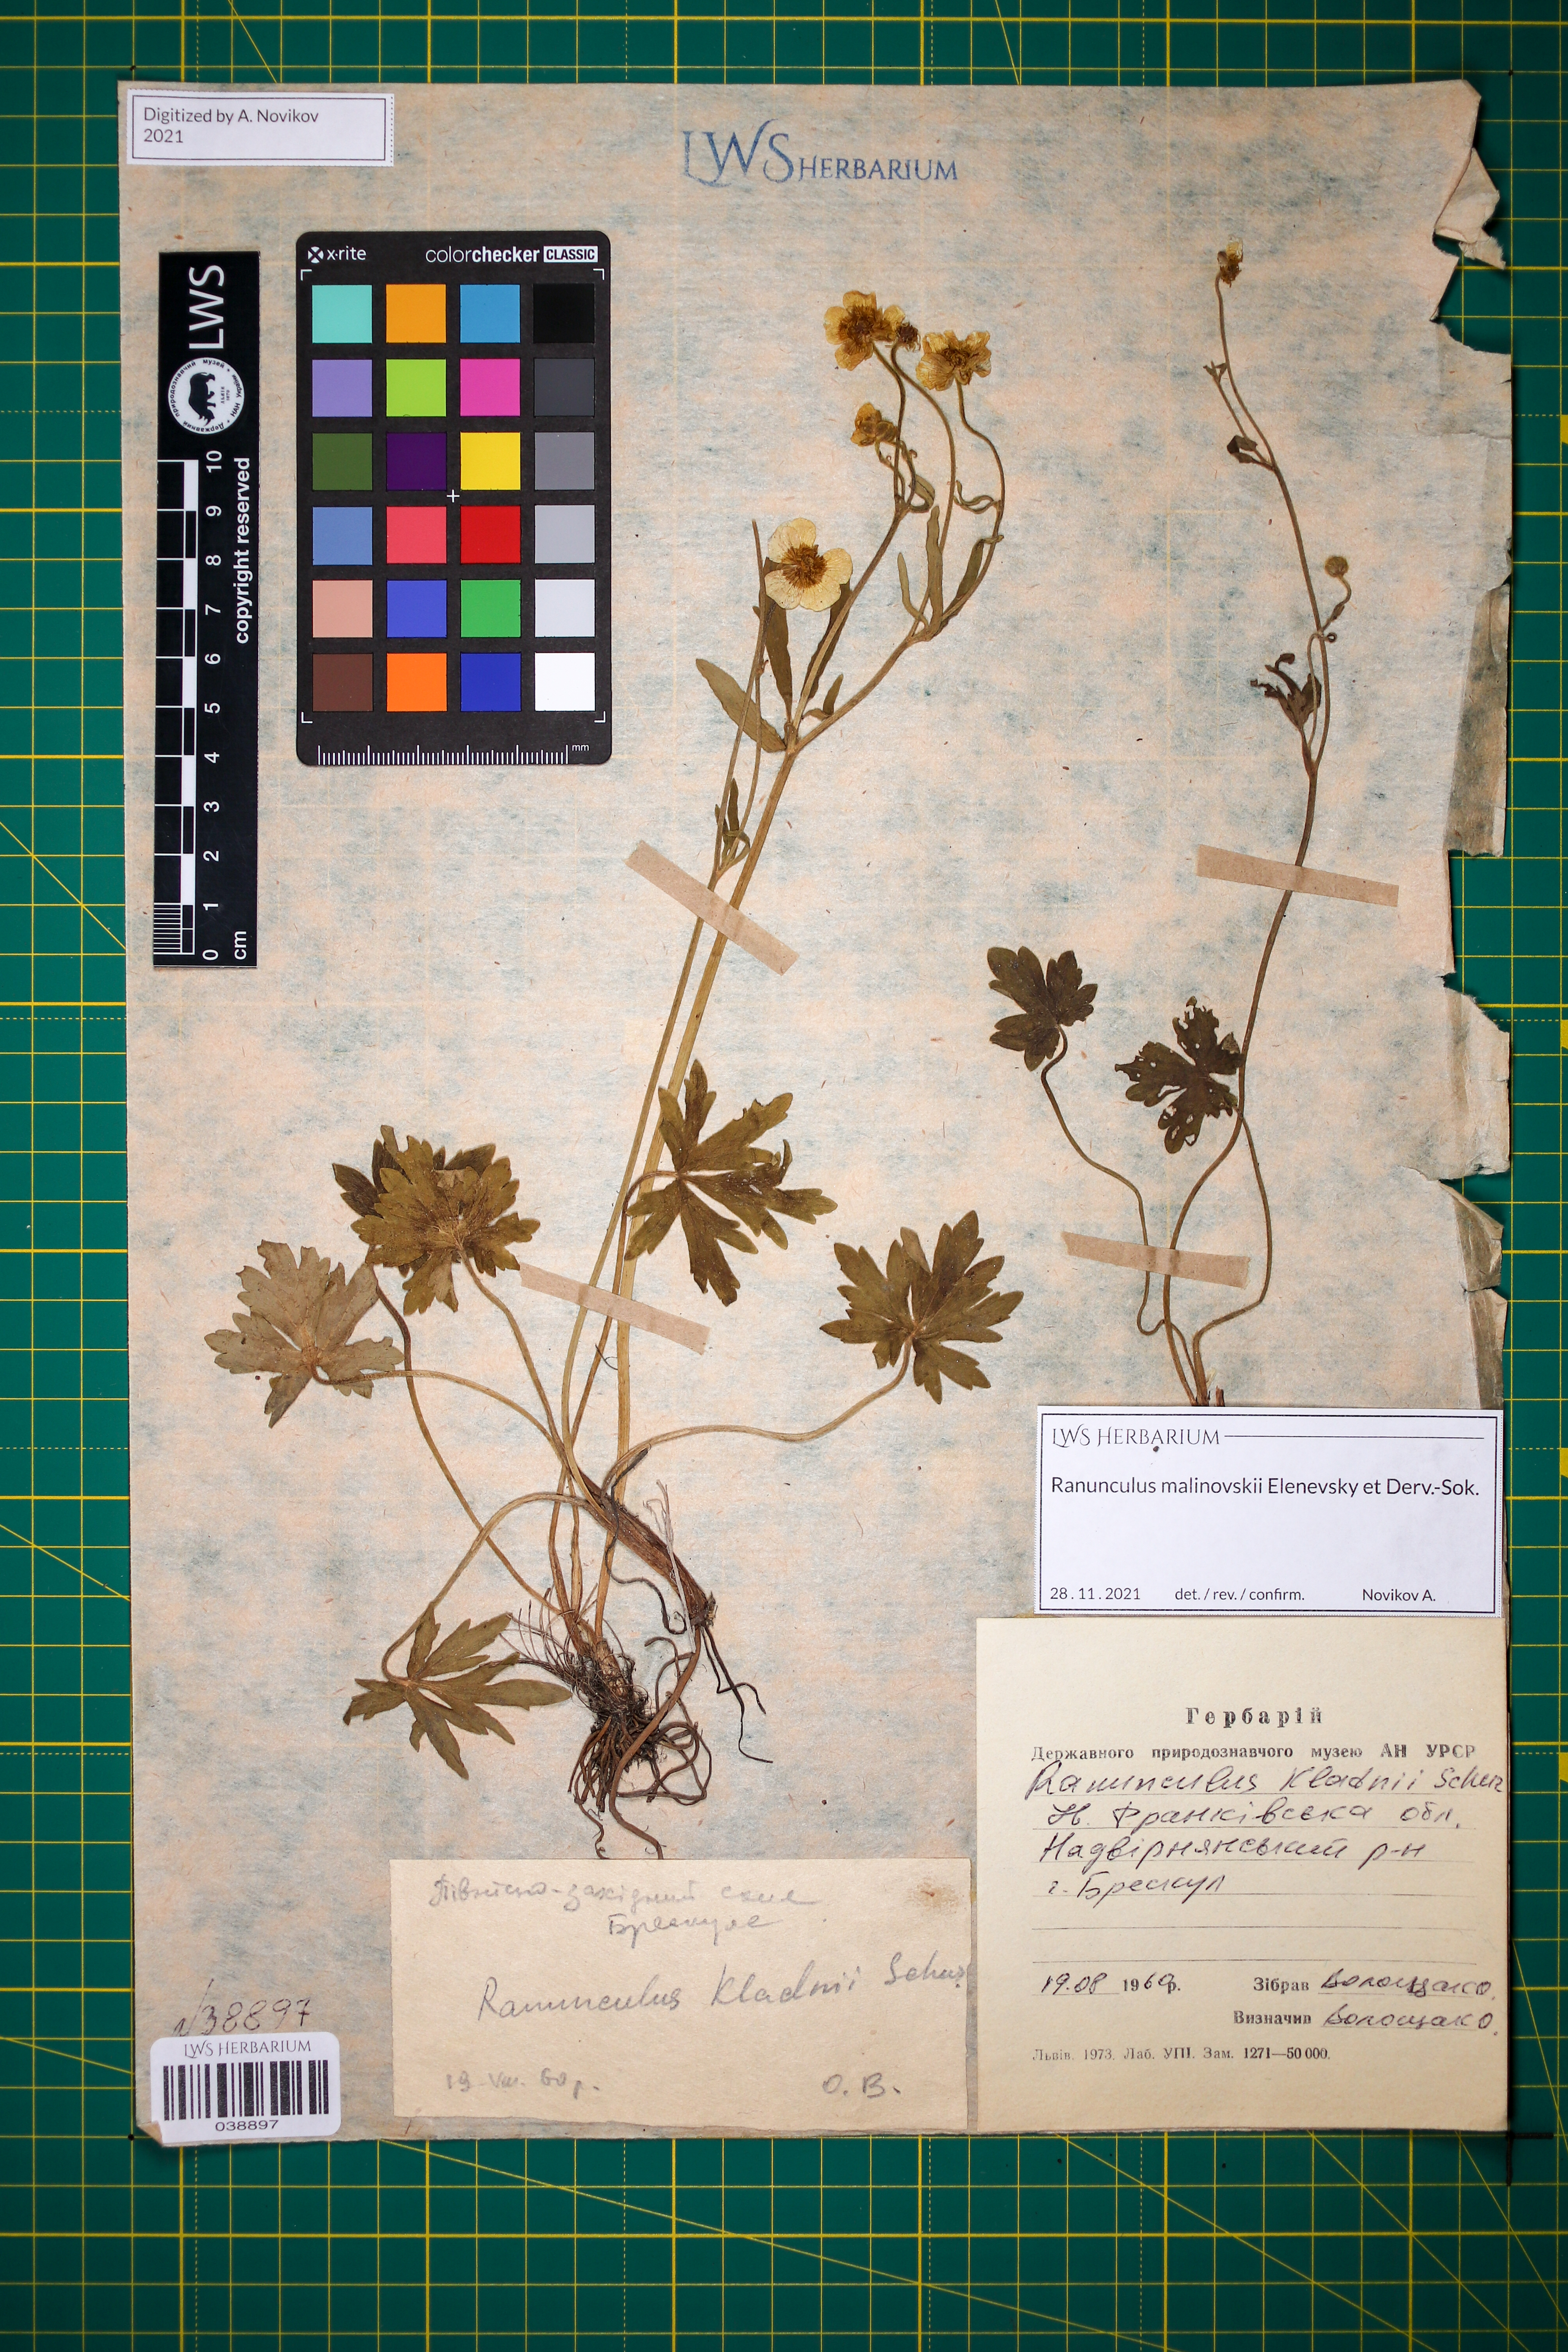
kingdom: Plantae
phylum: Tracheophyta
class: Magnoliopsida
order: Ranunculales
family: Ranunculaceae
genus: Ranunculus
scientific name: Ranunculus malinovskii
